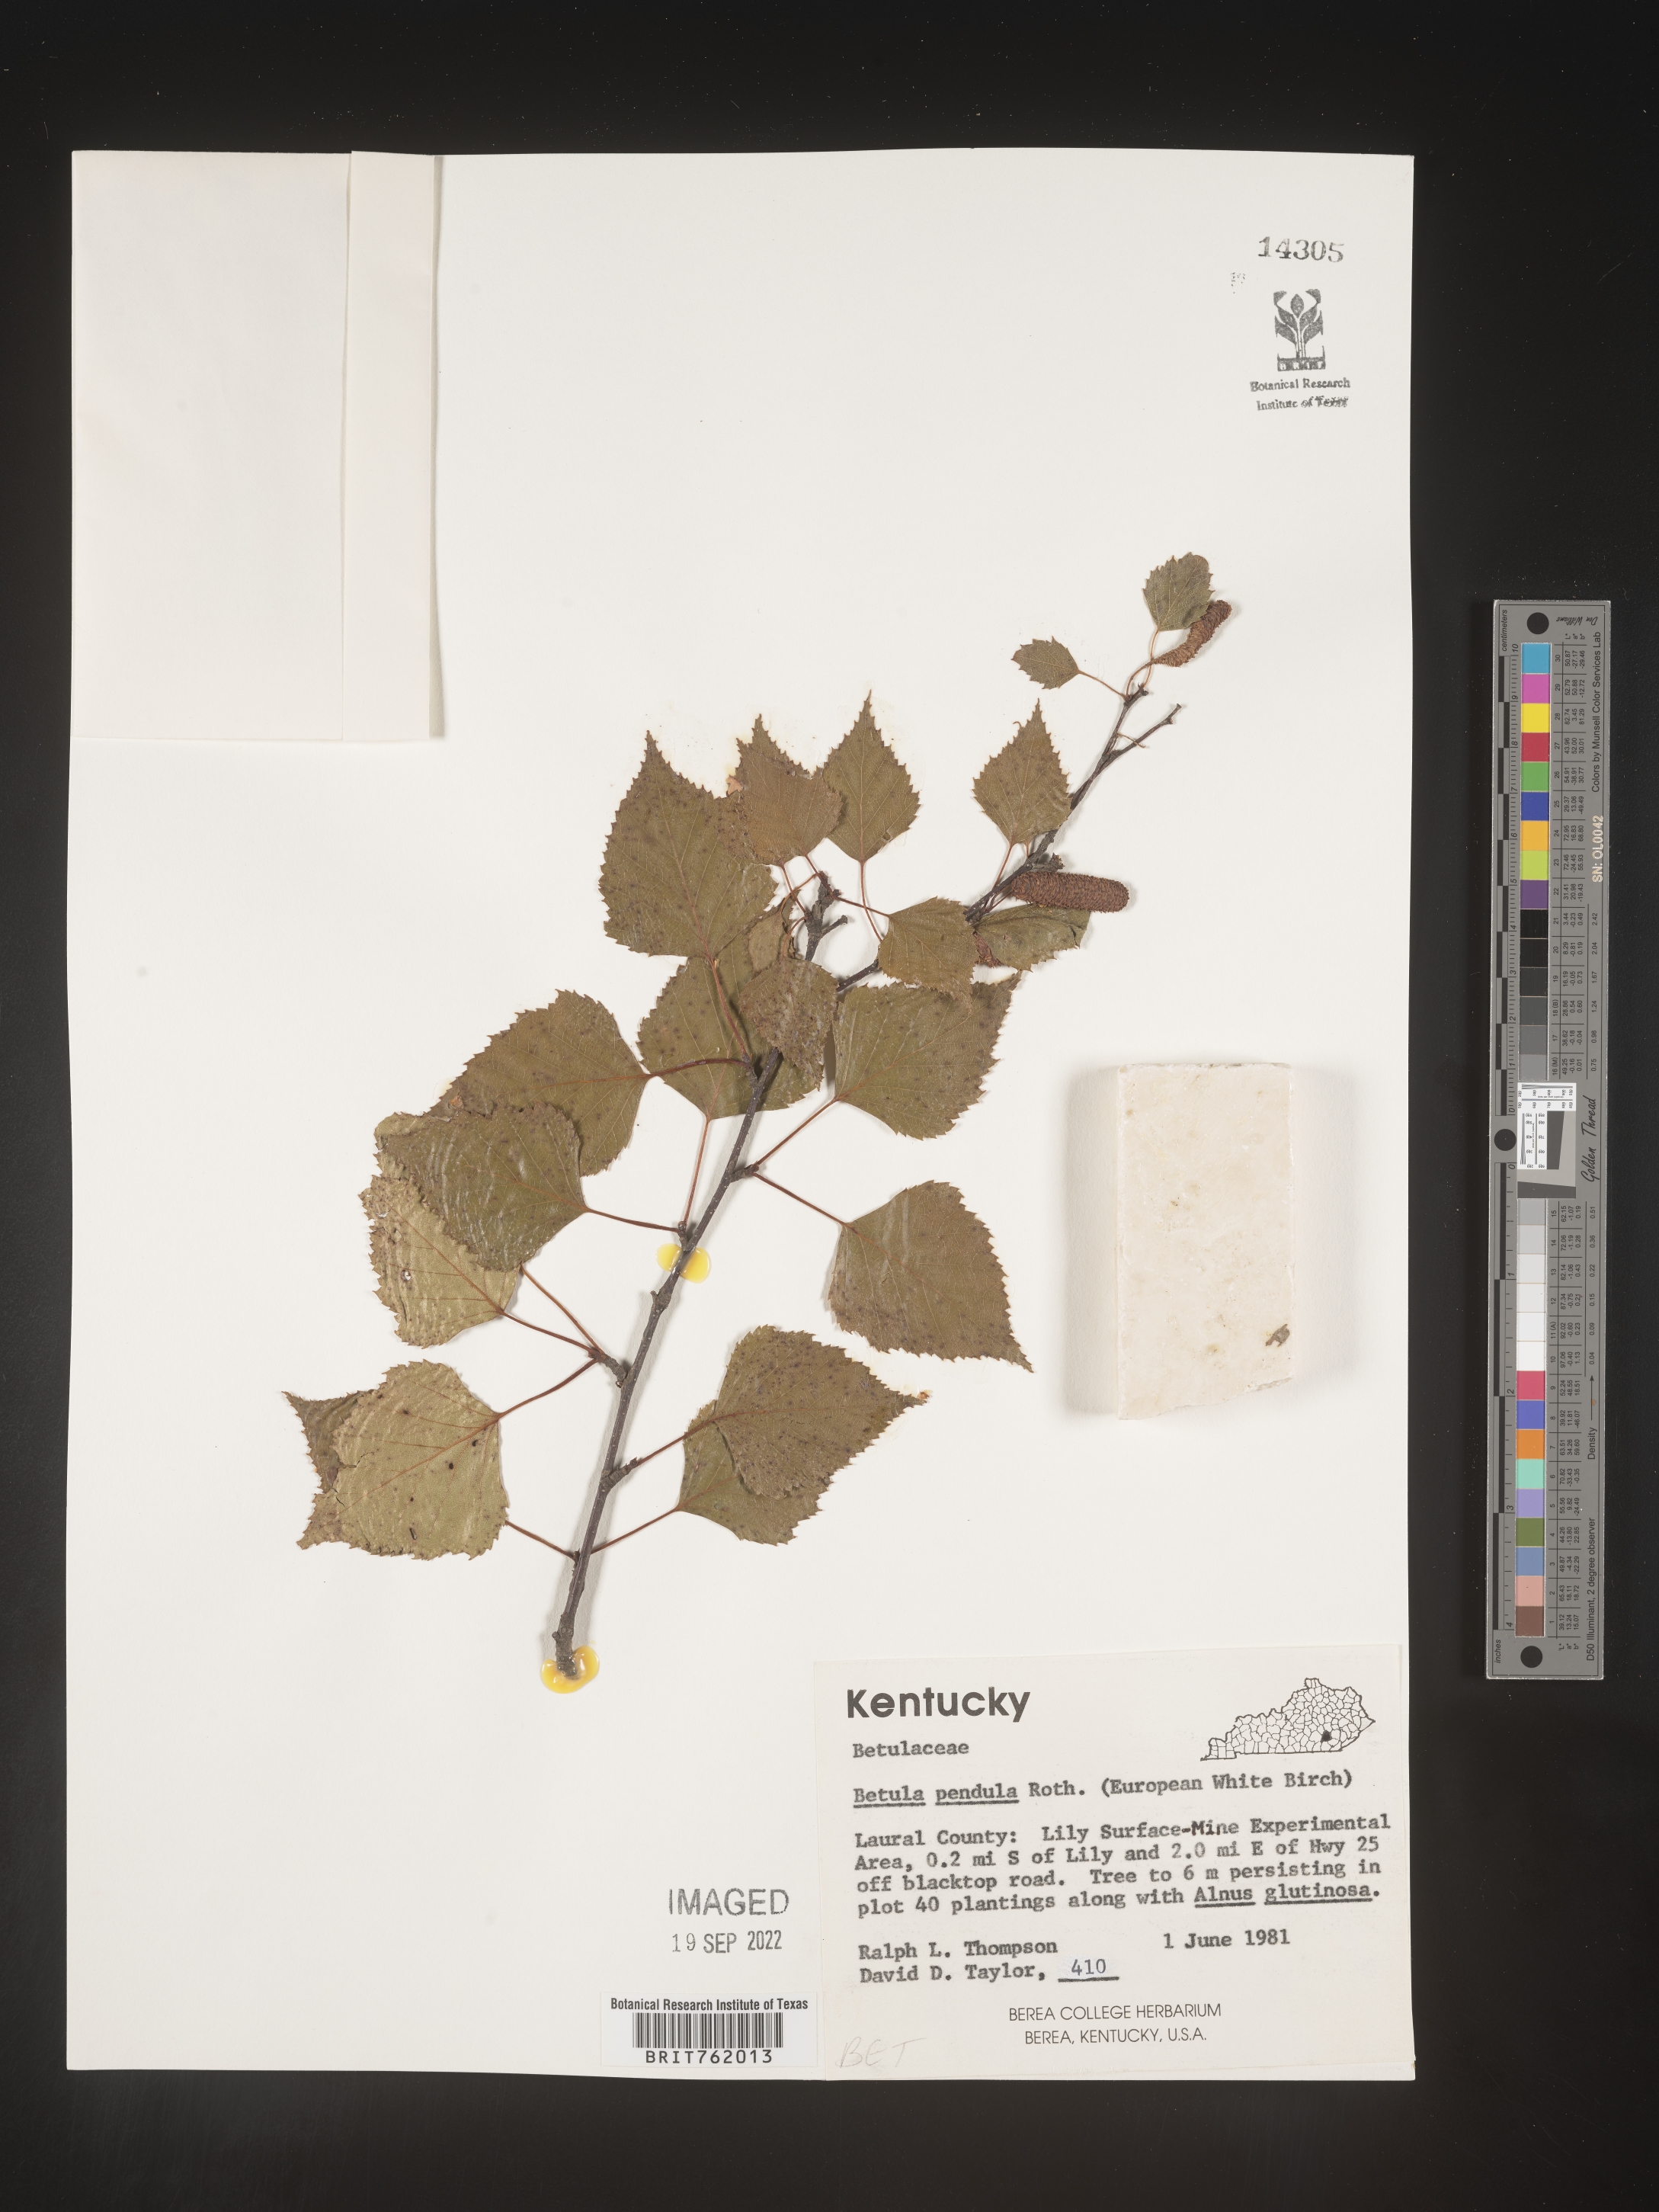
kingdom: Plantae
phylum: Tracheophyta
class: Magnoliopsida
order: Fagales
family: Betulaceae
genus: Betula
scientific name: Betula
